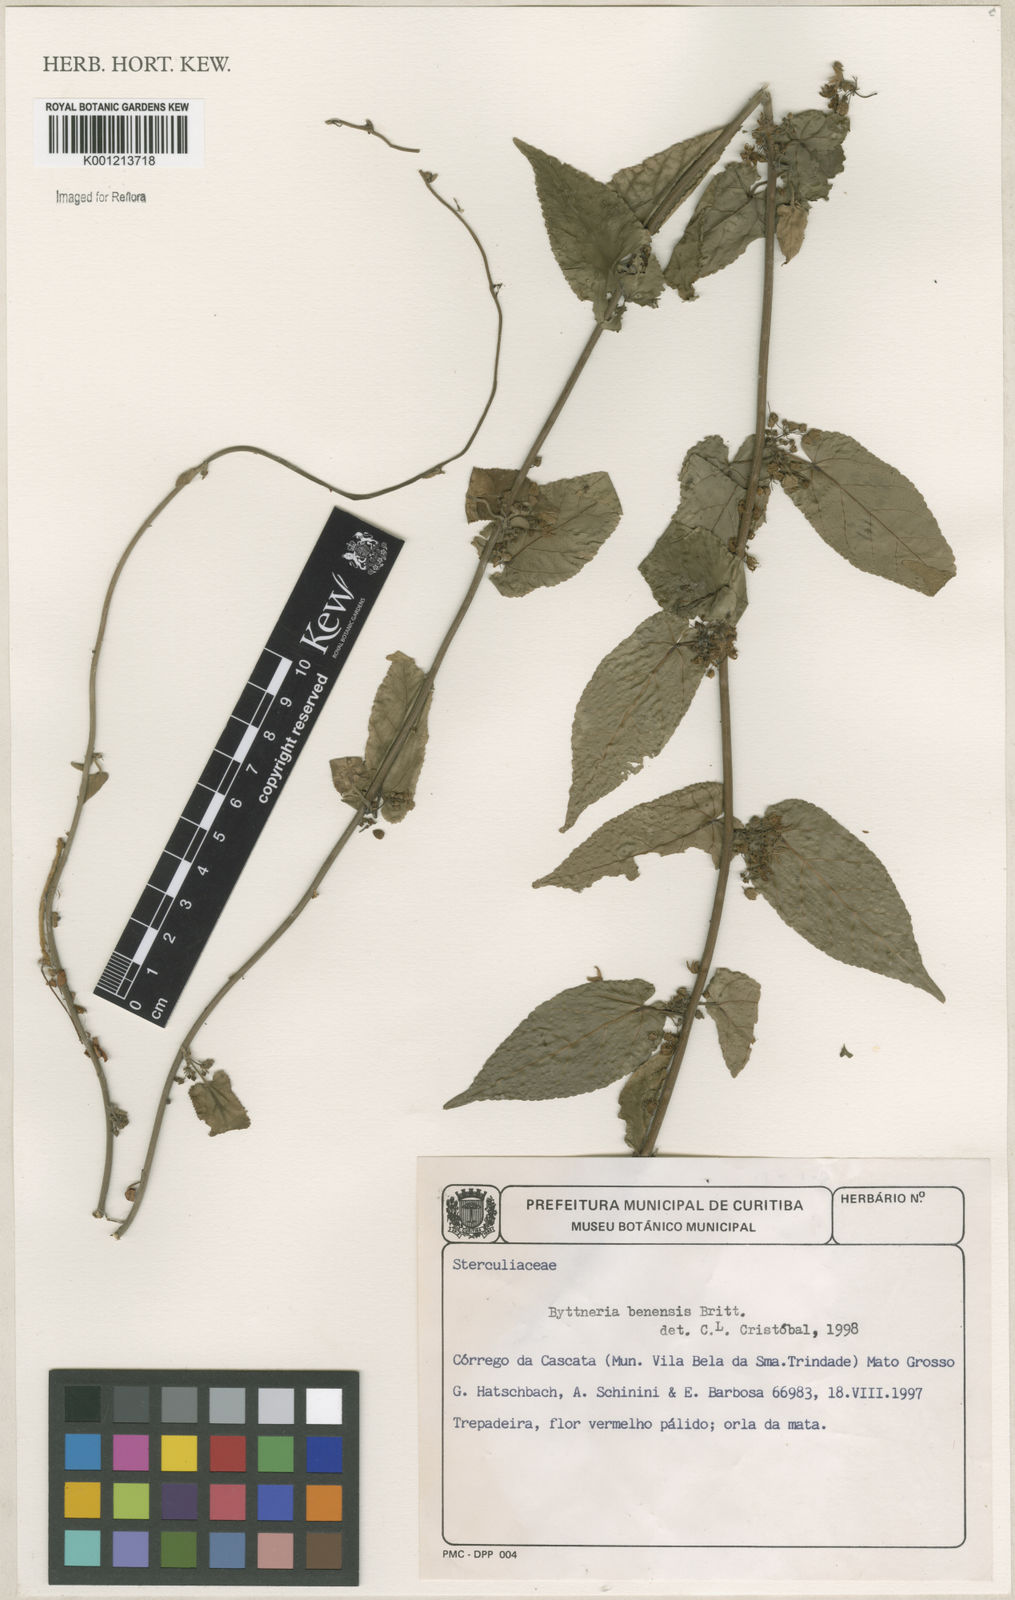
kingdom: Plantae
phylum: Tracheophyta
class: Magnoliopsida
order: Malvales
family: Malvaceae
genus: Byttneria
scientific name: Byttneria benensis
